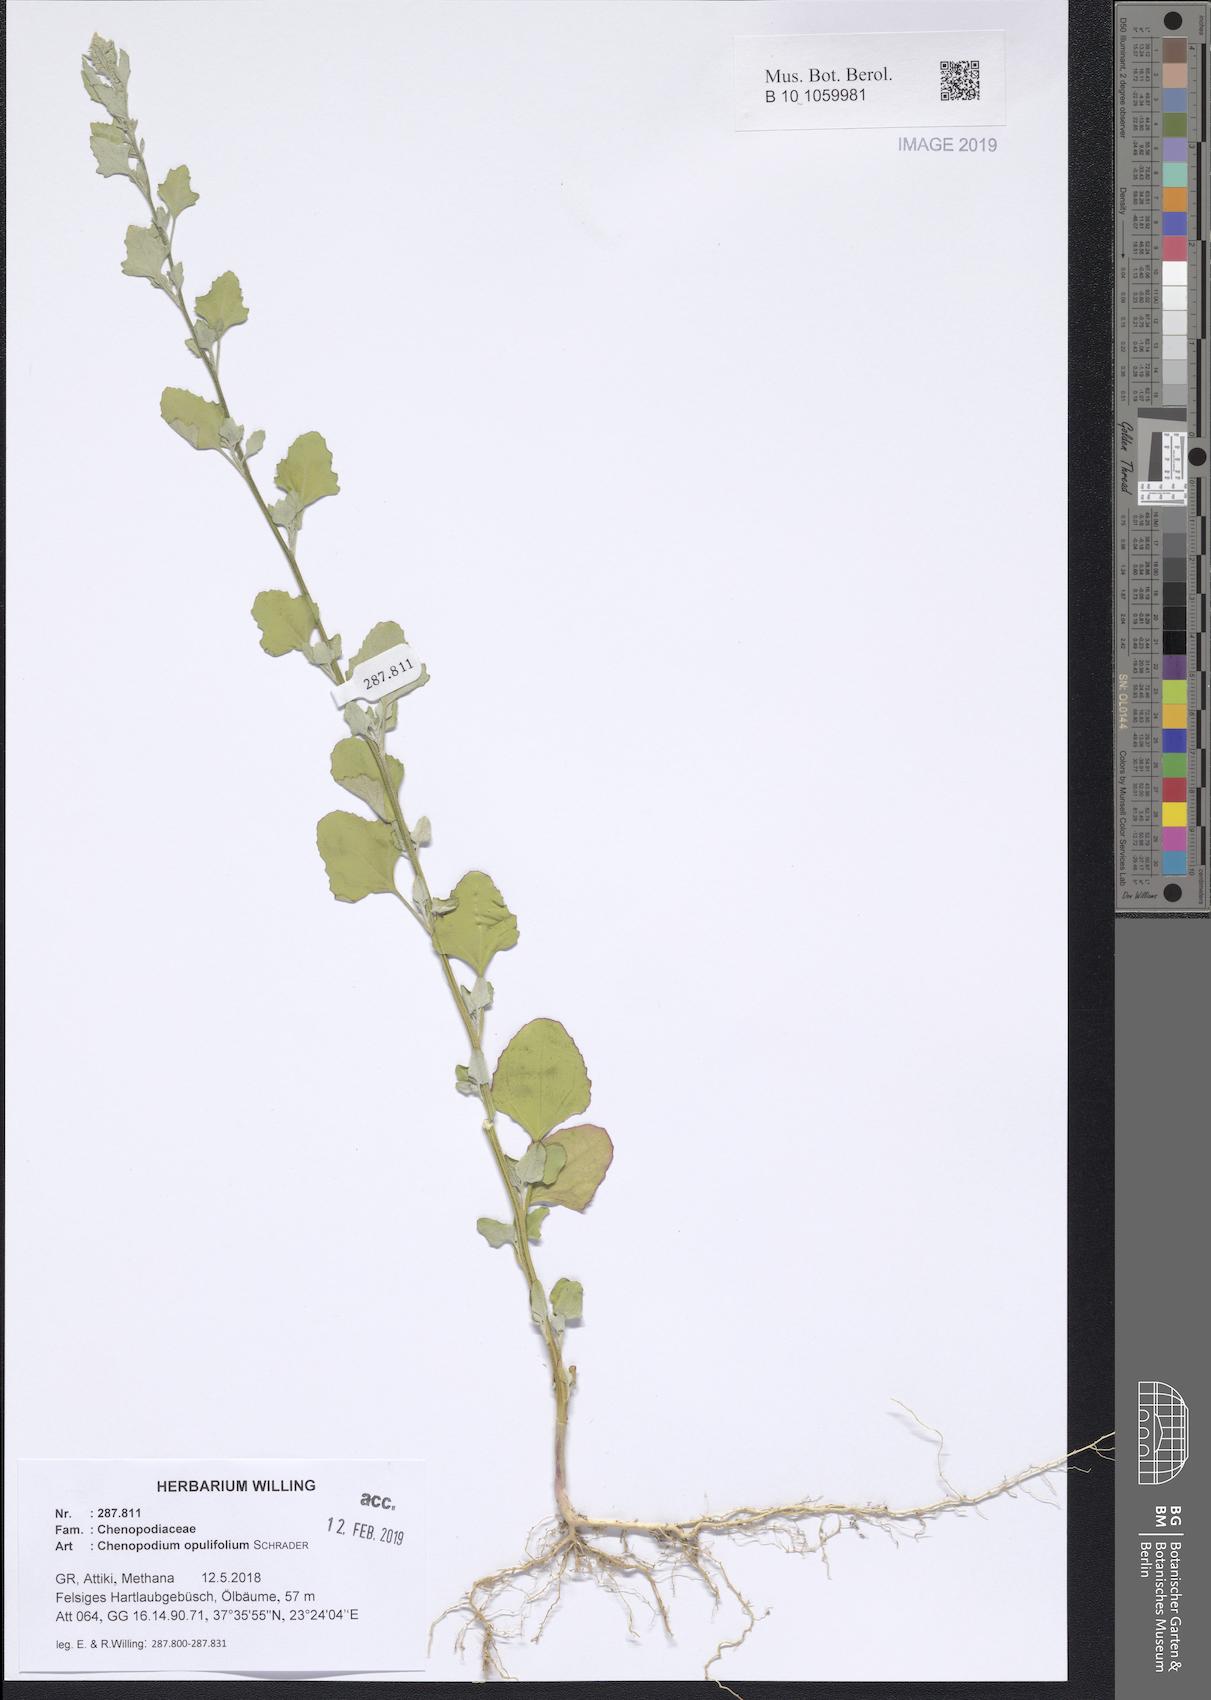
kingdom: Plantae
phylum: Tracheophyta
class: Magnoliopsida
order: Caryophyllales
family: Amaranthaceae
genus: Chenopodium
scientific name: Chenopodium opulifolium
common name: Grey goosefoot
